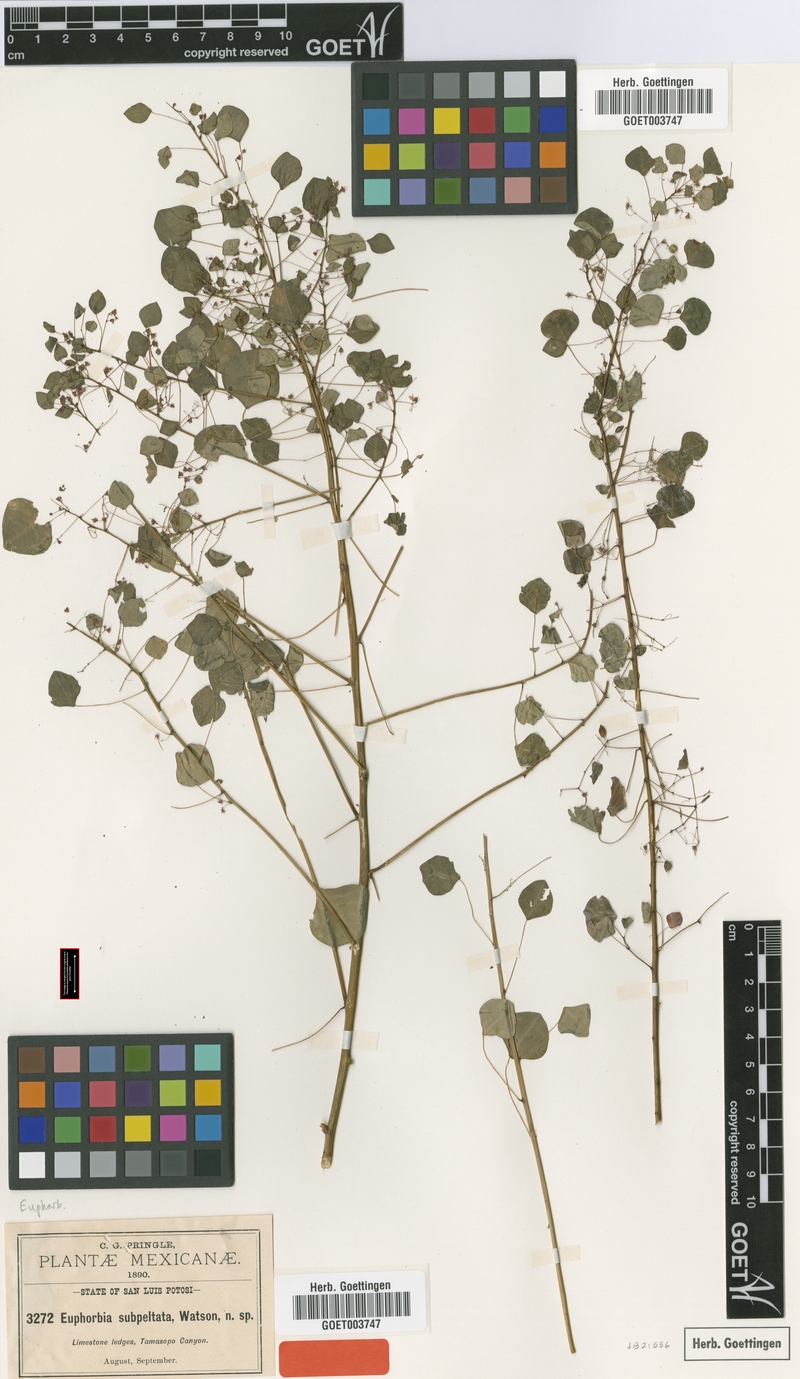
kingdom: Plantae
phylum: Tracheophyta
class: Magnoliopsida
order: Malpighiales
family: Euphorbiaceae
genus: Euphorbia
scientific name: Euphorbia subpeltata
